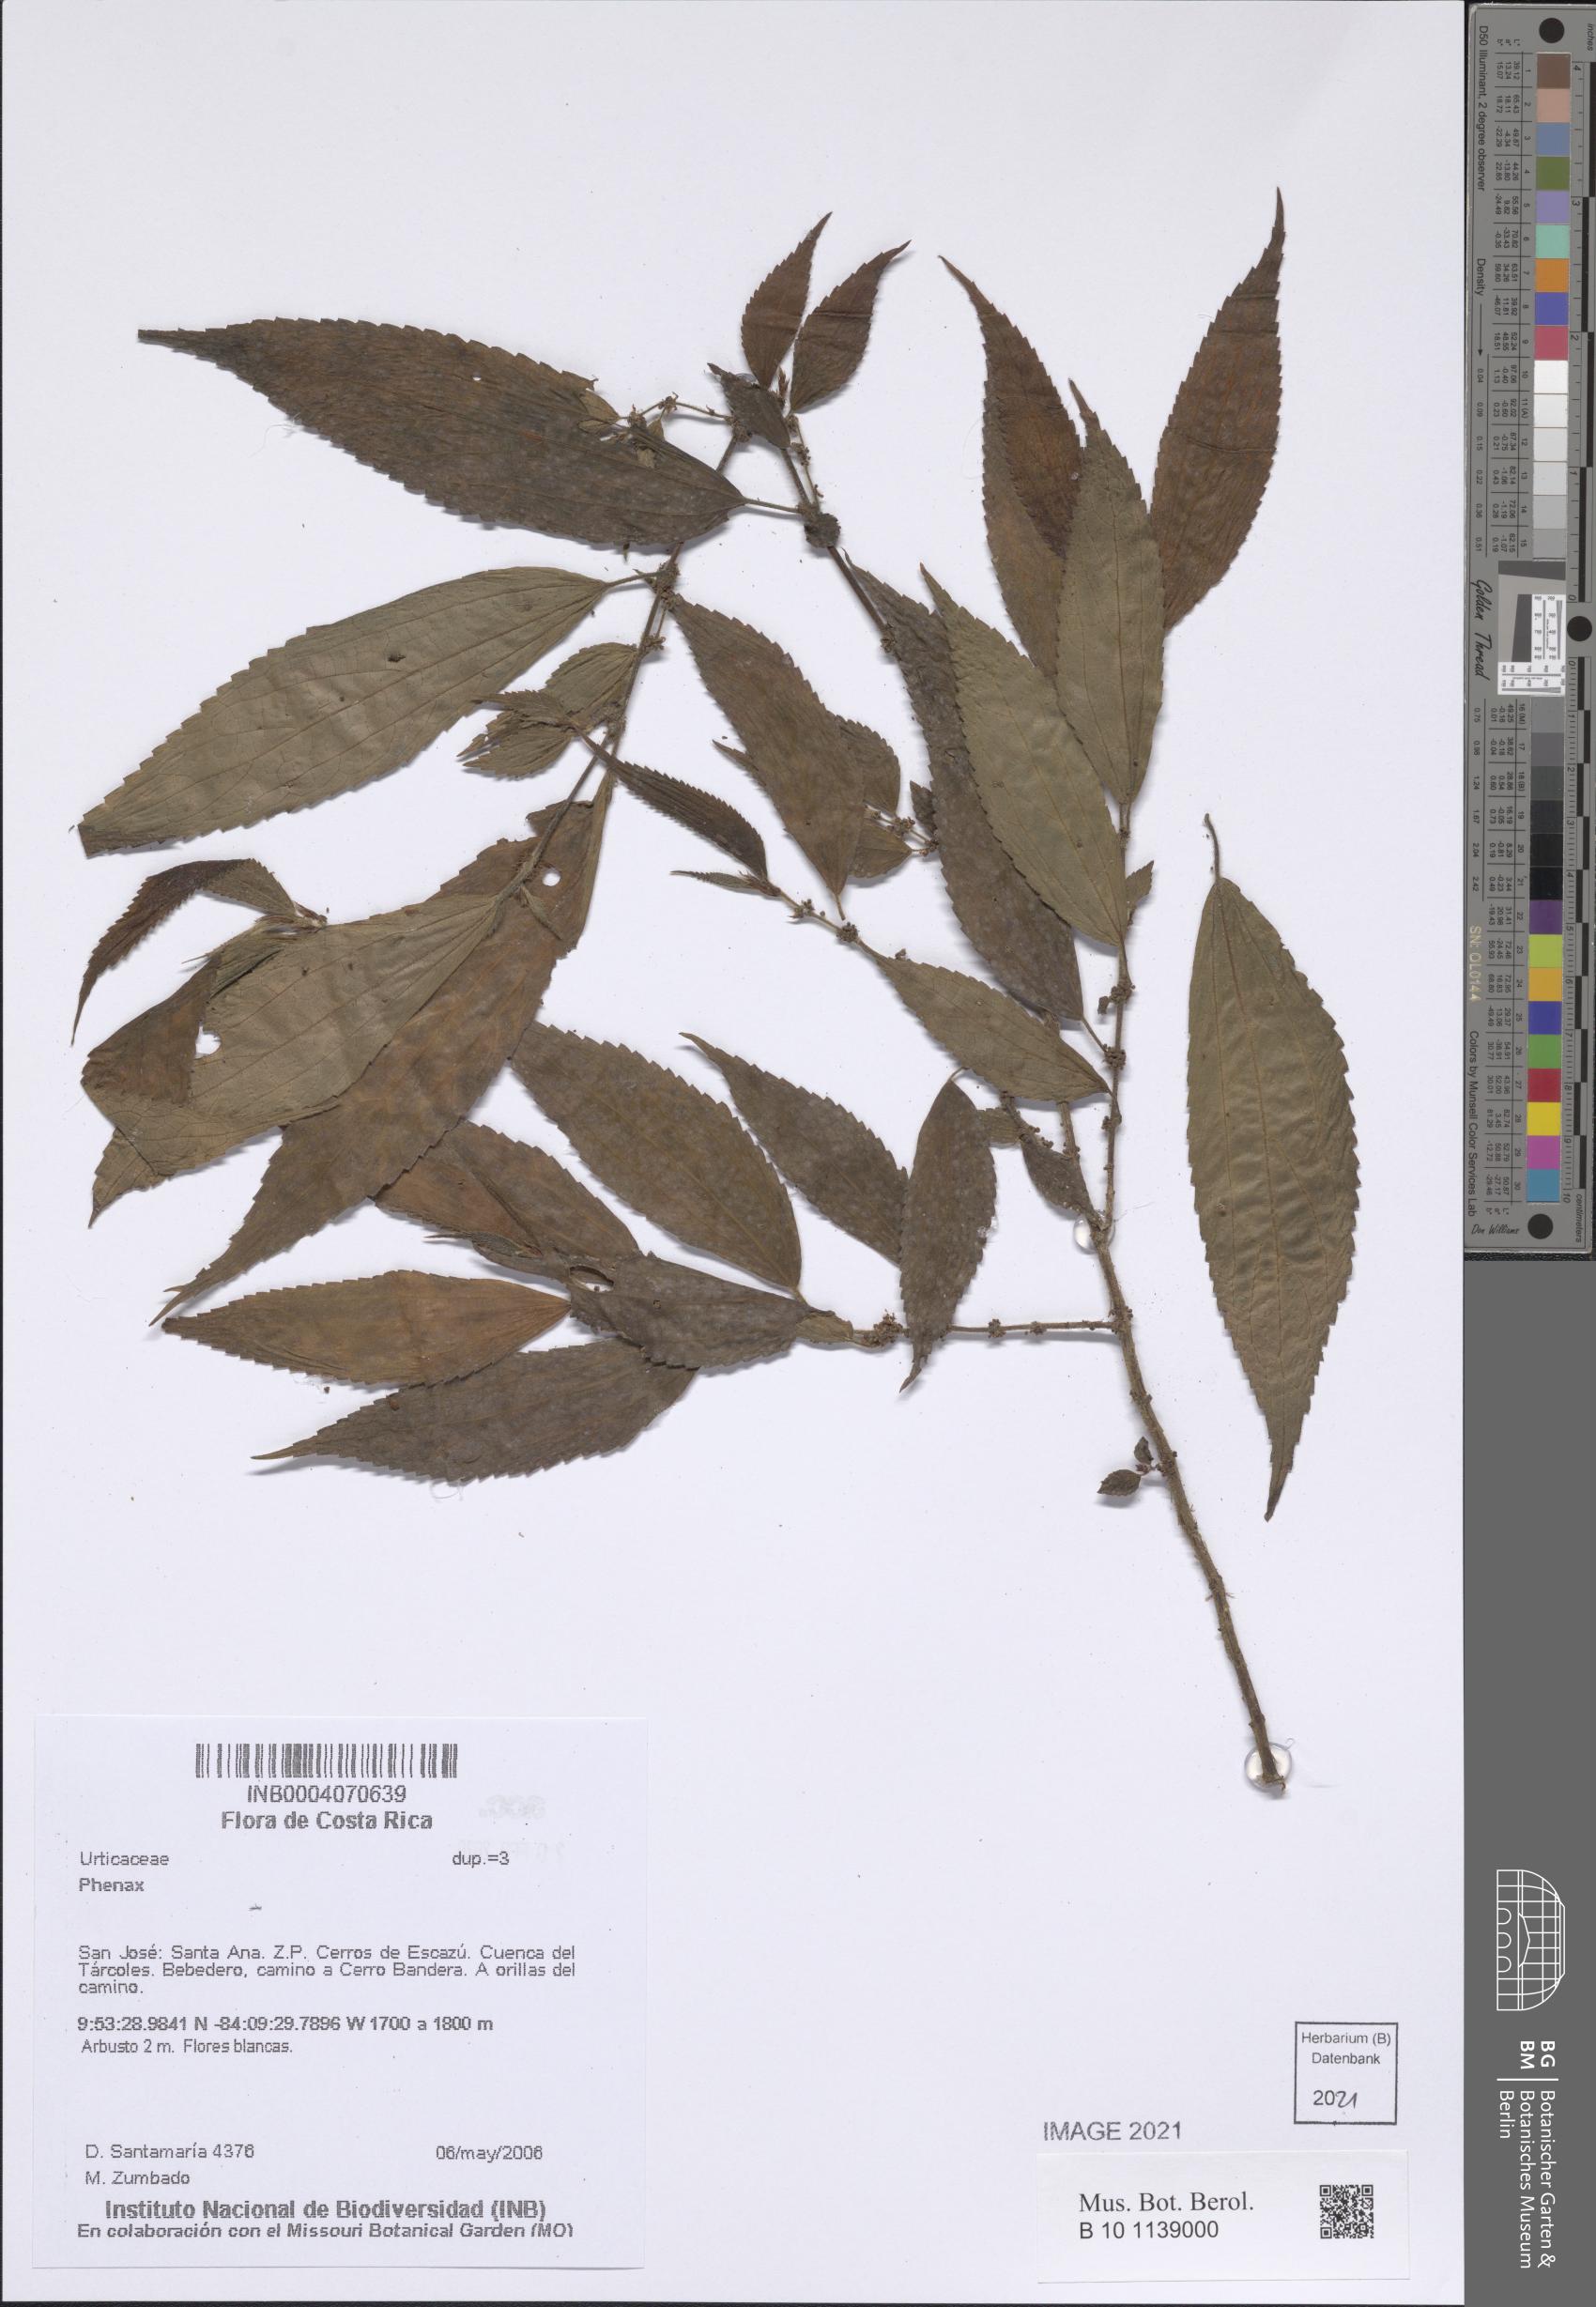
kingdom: Plantae
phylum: Tracheophyta
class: Magnoliopsida
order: Rosales
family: Urticaceae
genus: Phenax
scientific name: Phenax
